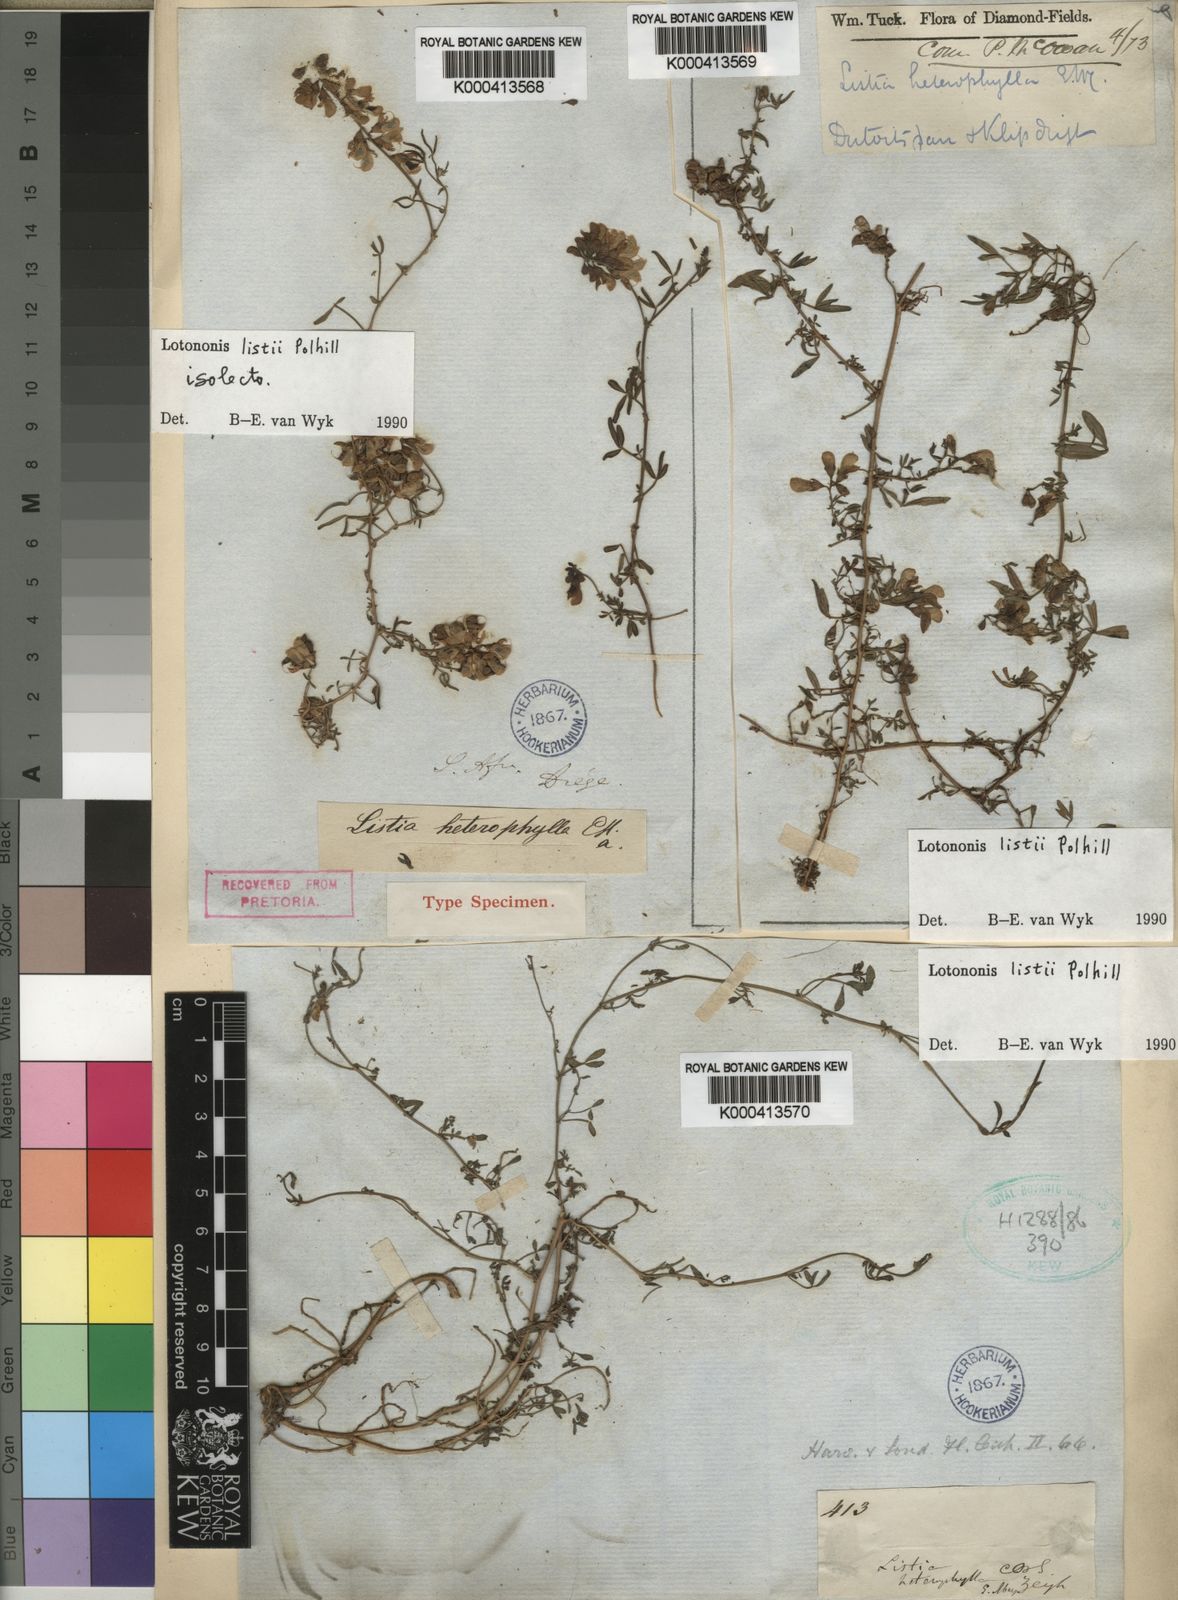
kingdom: Plantae
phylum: Tracheophyta
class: Magnoliopsida
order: Fabales
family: Fabaceae
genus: Lotononis
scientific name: Lotononis
